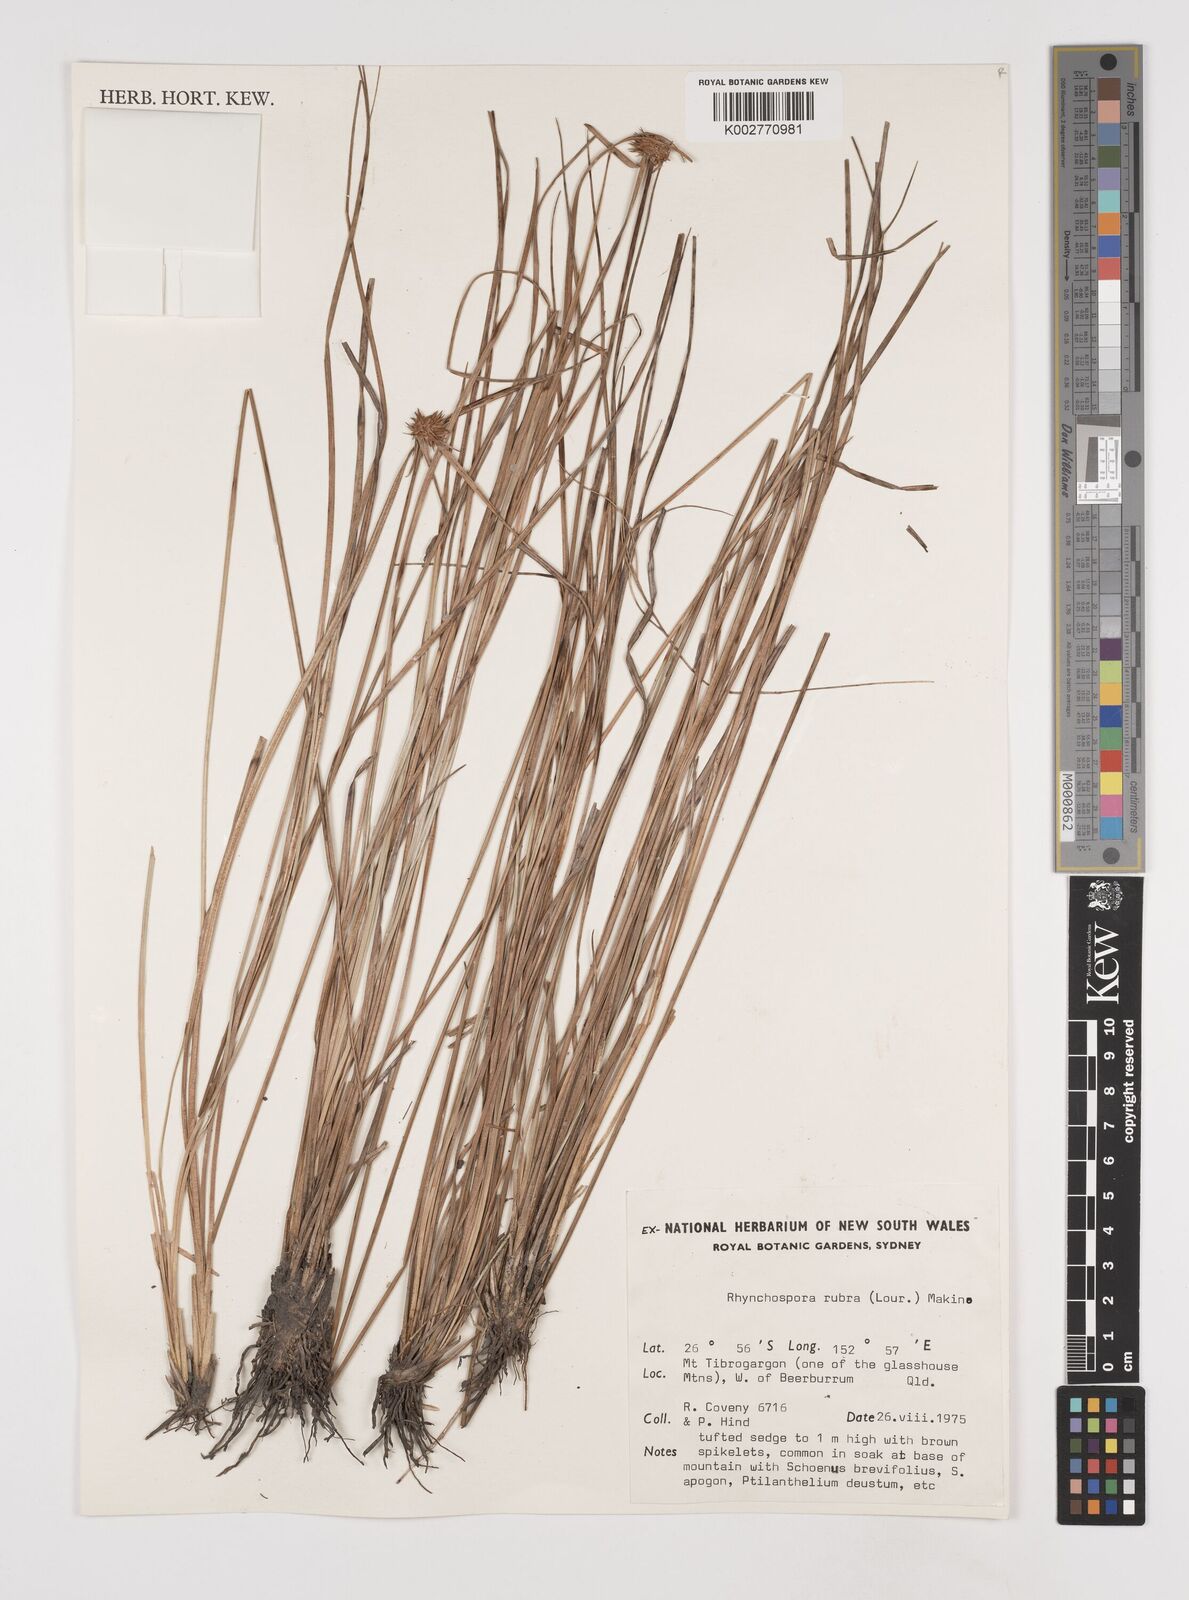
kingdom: Plantae
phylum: Tracheophyta
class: Liliopsida
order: Poales
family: Cyperaceae
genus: Rhynchospora
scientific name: Rhynchospora rubra
